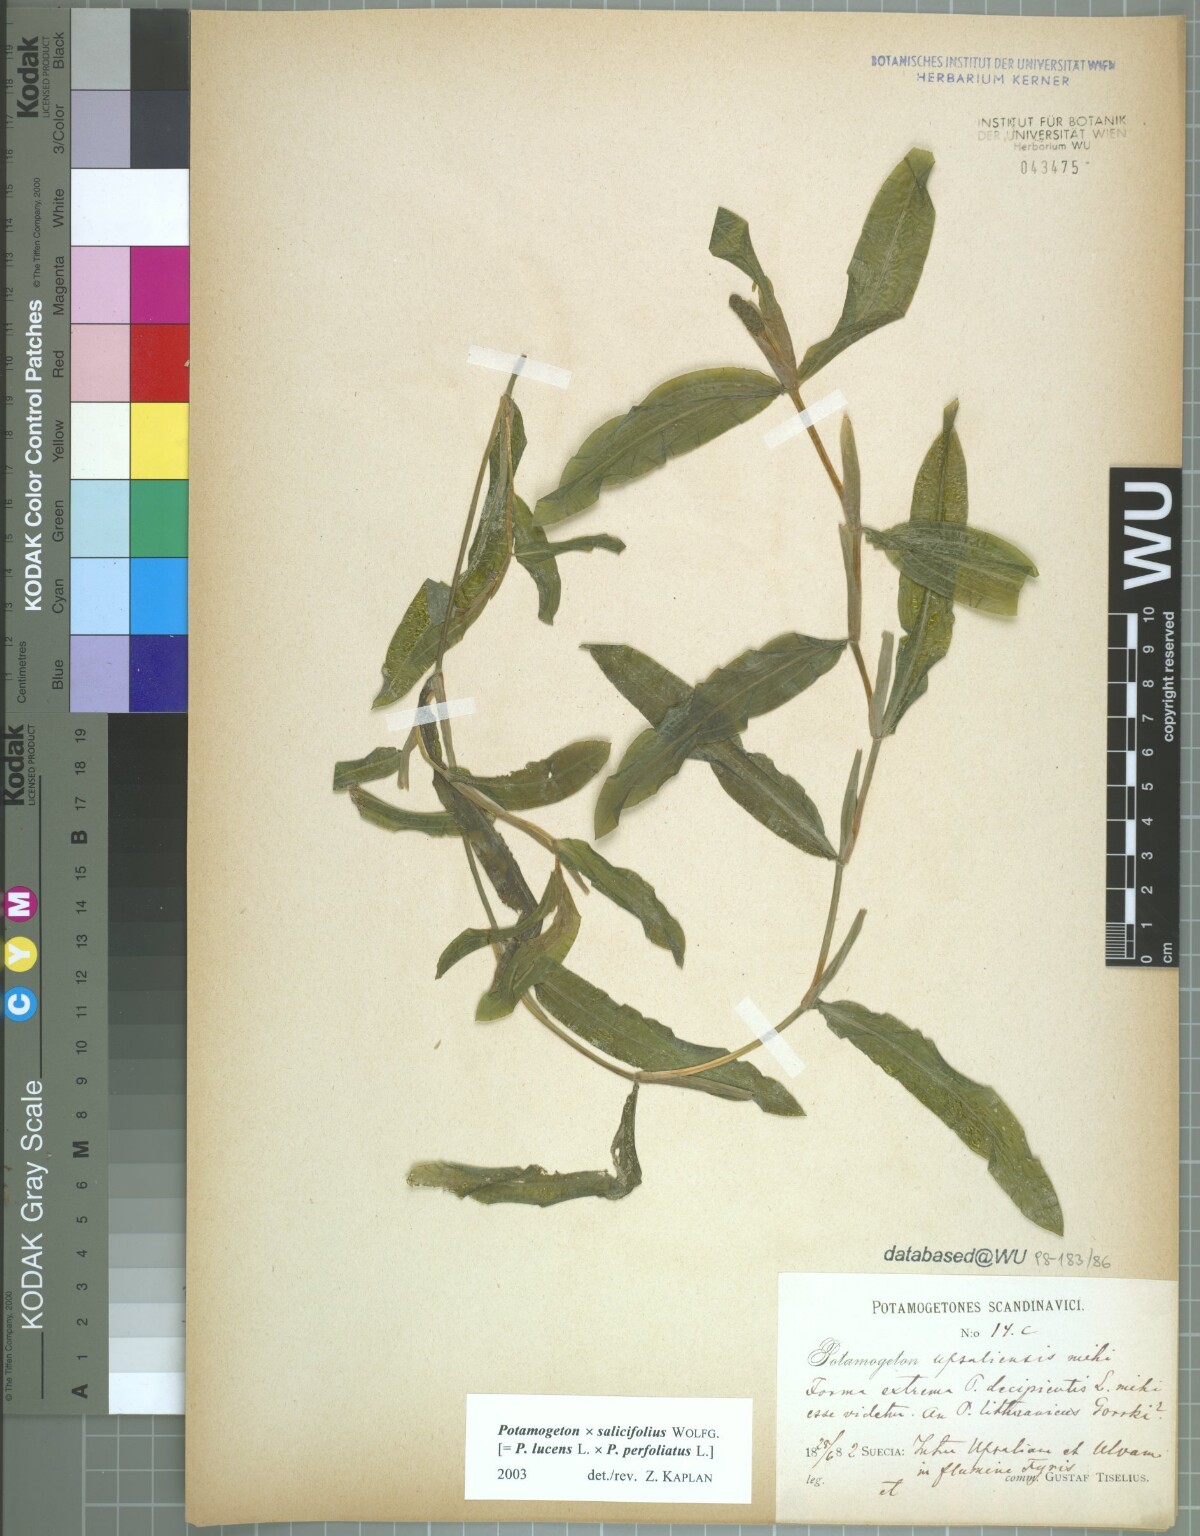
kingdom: Plantae
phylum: Tracheophyta
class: Liliopsida
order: Alismatales
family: Potamogetonaceae
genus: Potamogeton
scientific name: Potamogeton salicifolius
